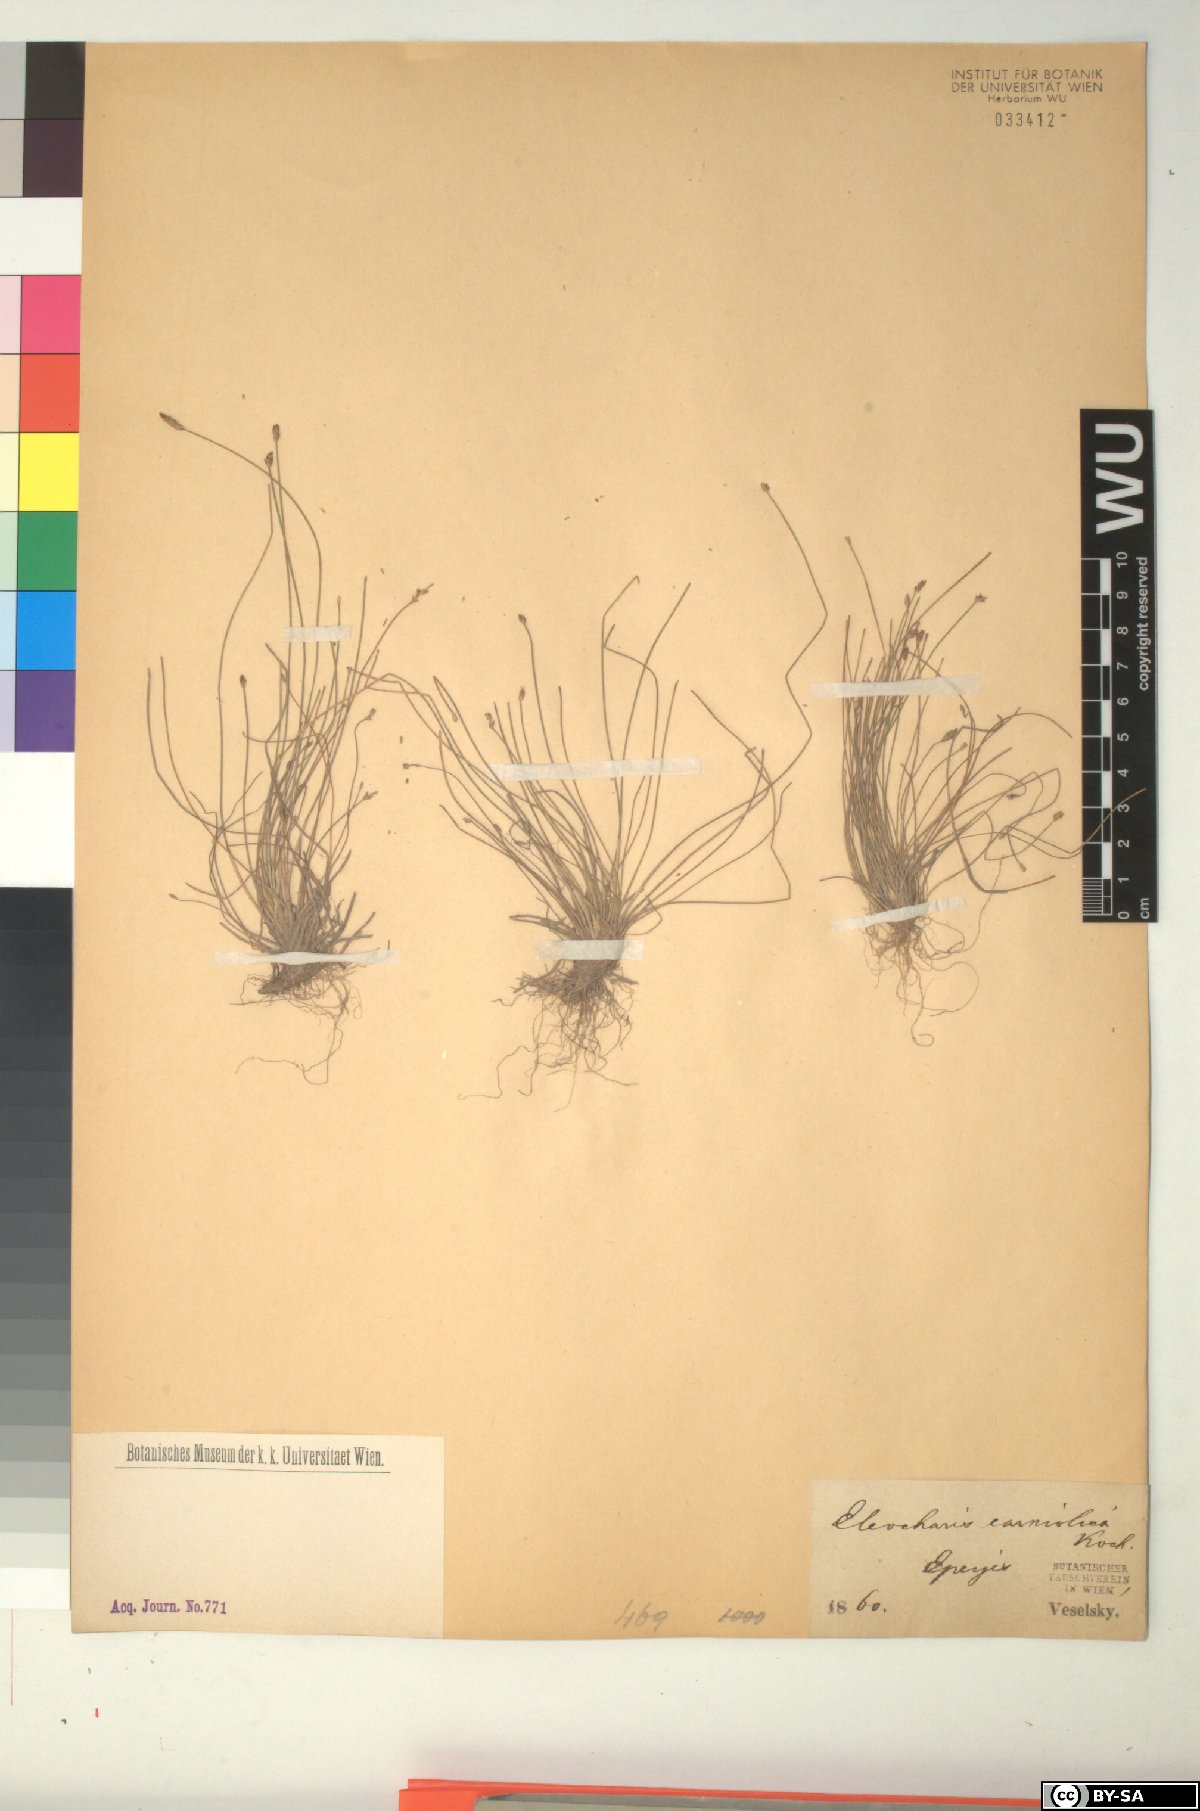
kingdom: Plantae
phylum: Tracheophyta
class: Liliopsida
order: Poales
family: Cyperaceae
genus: Eleocharis
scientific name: Eleocharis carniolica
